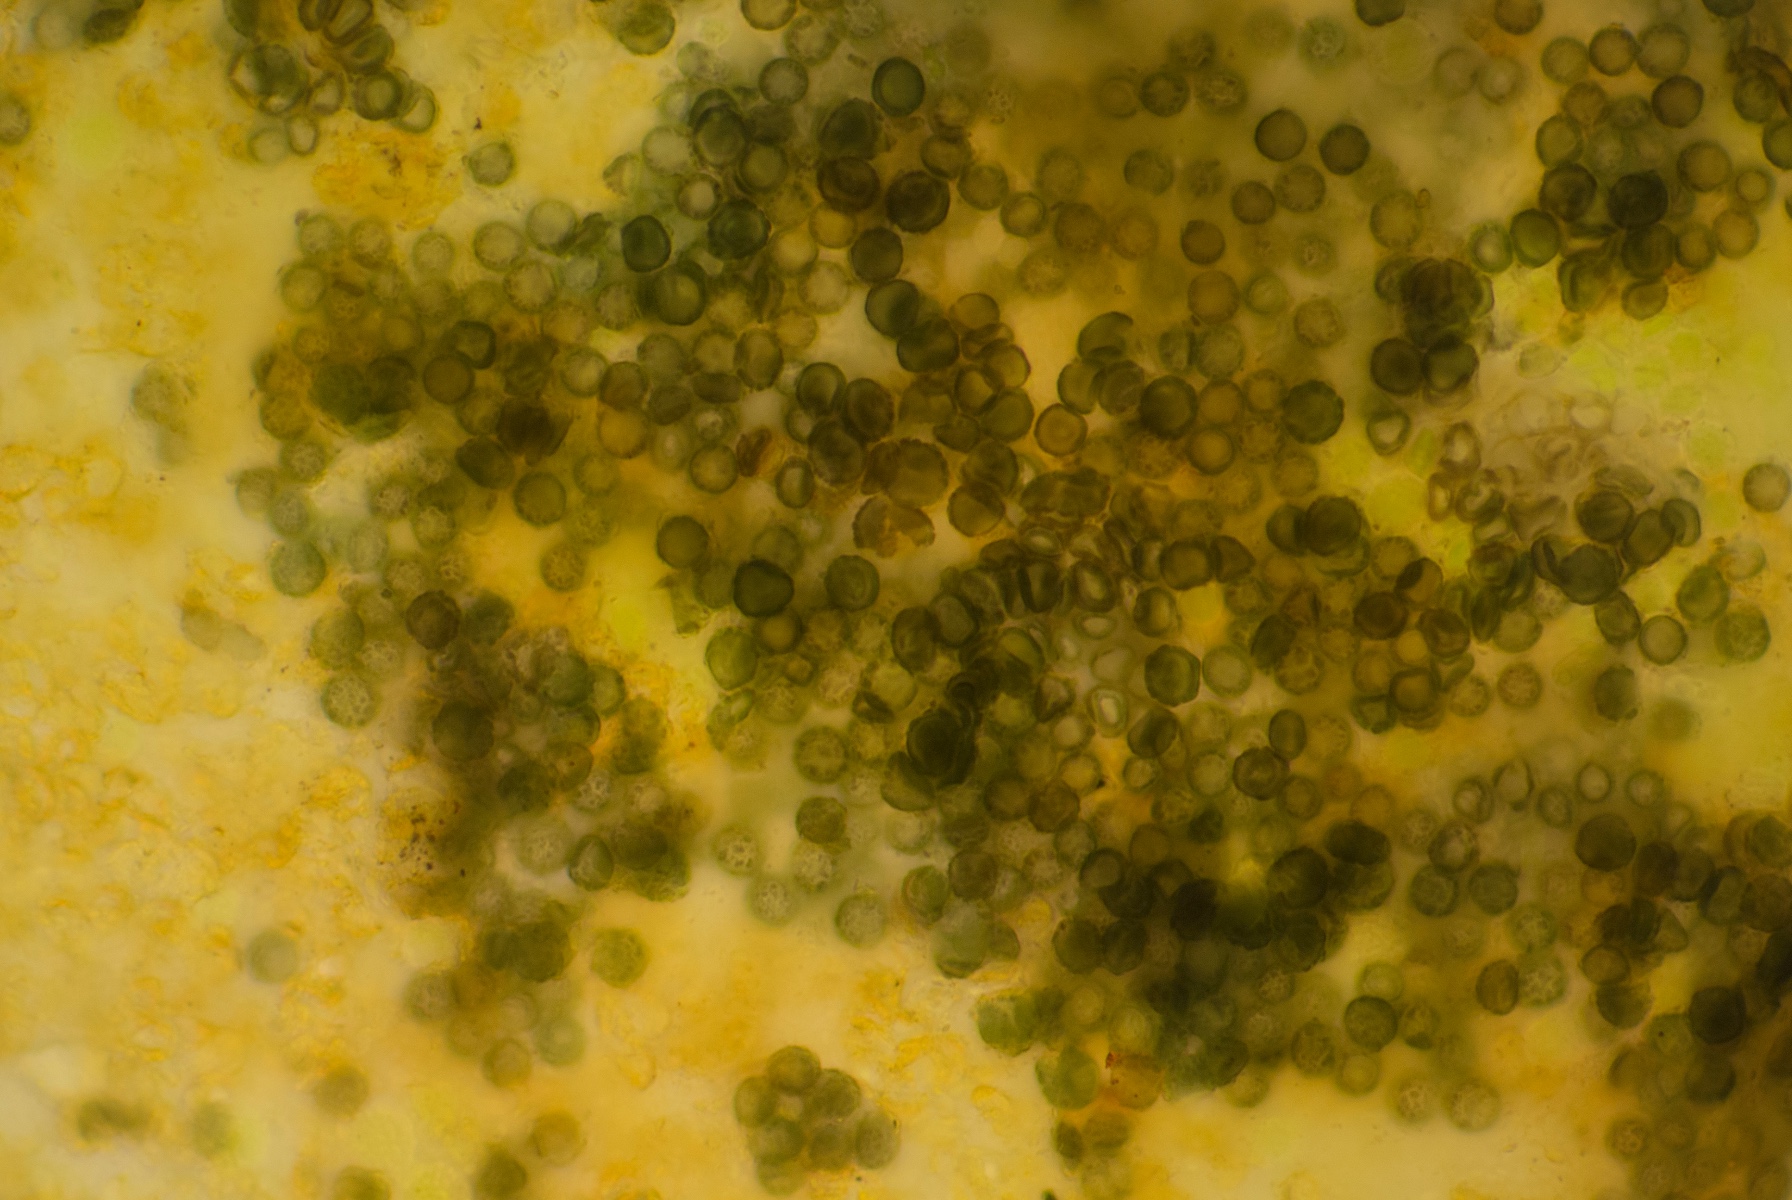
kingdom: Fungi
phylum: Ascomycota
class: Dothideomycetes
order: Mycosphaerellales
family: Teratosphaeriaceae
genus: Xanthoriicola
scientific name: Xanthoriicola physciae
